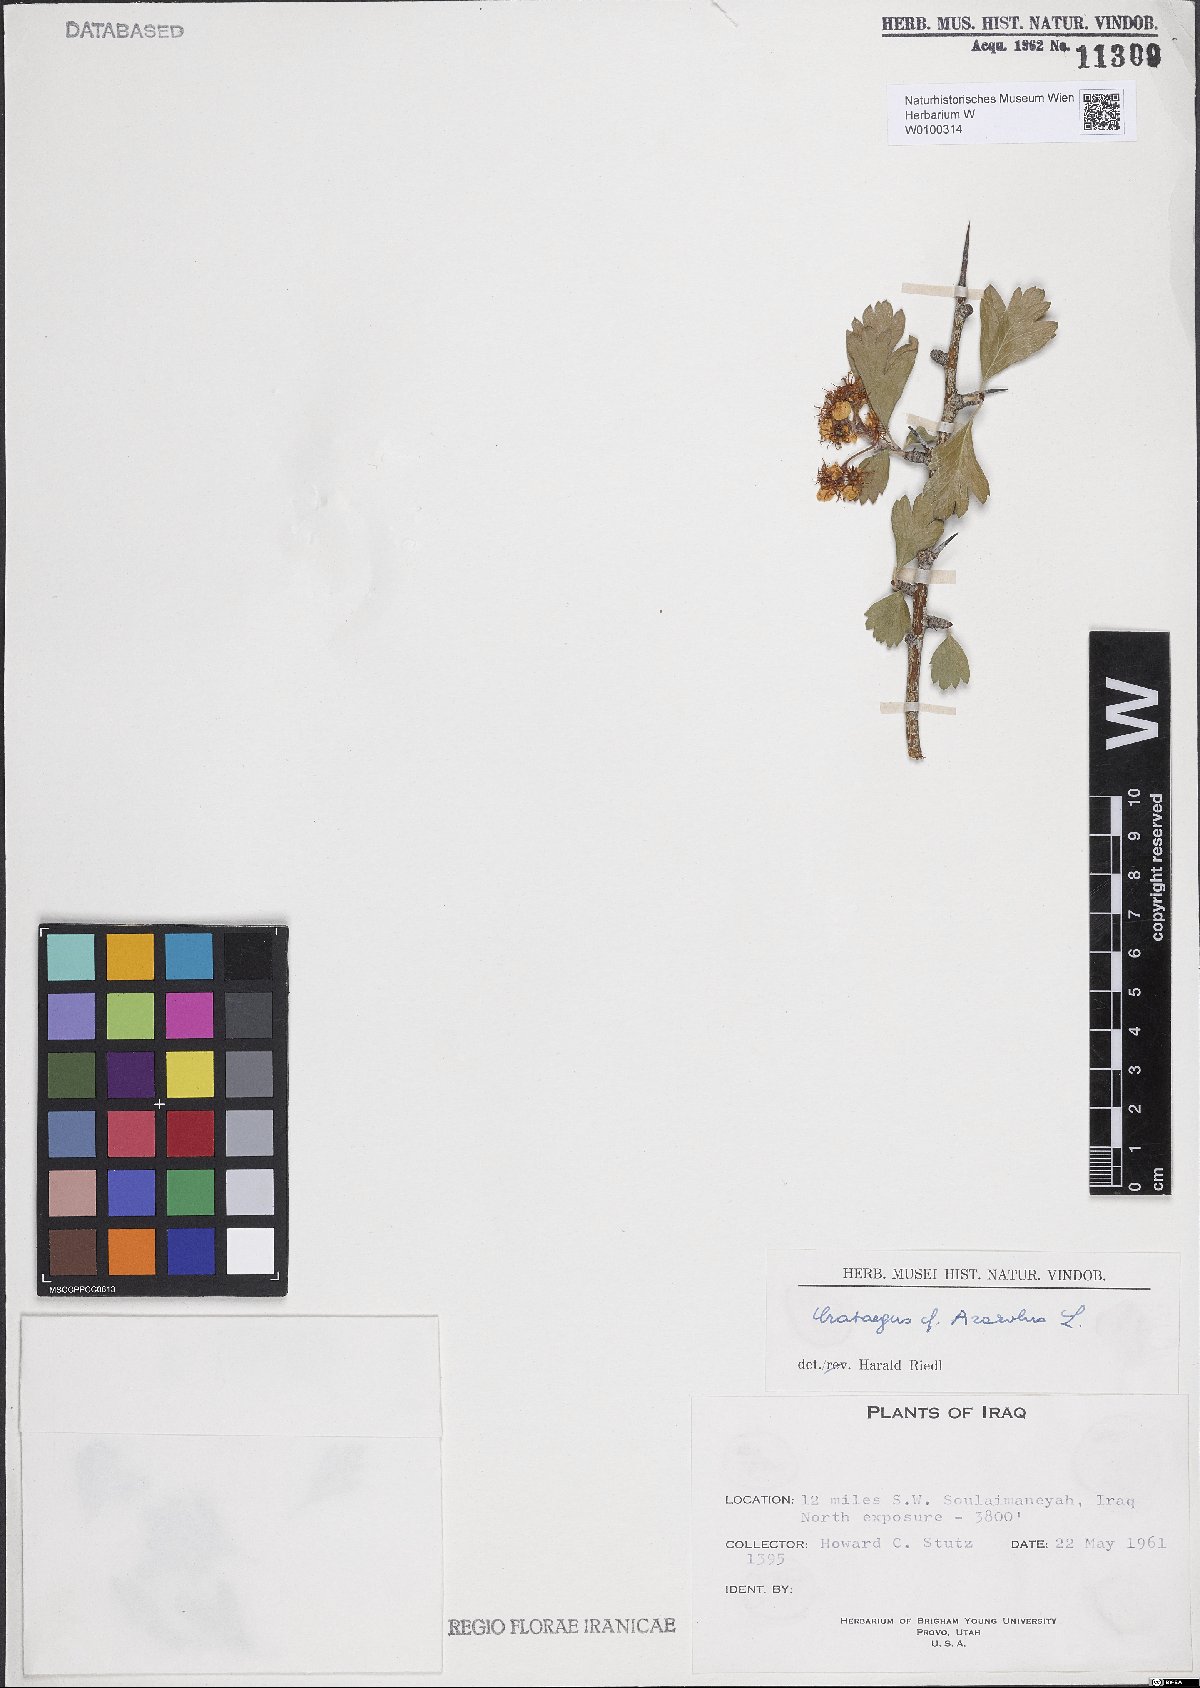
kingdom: Plantae
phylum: Tracheophyta
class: Magnoliopsida
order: Rosales
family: Rosaceae
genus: Crataegus
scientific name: Crataegus azarolus
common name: Azarole
